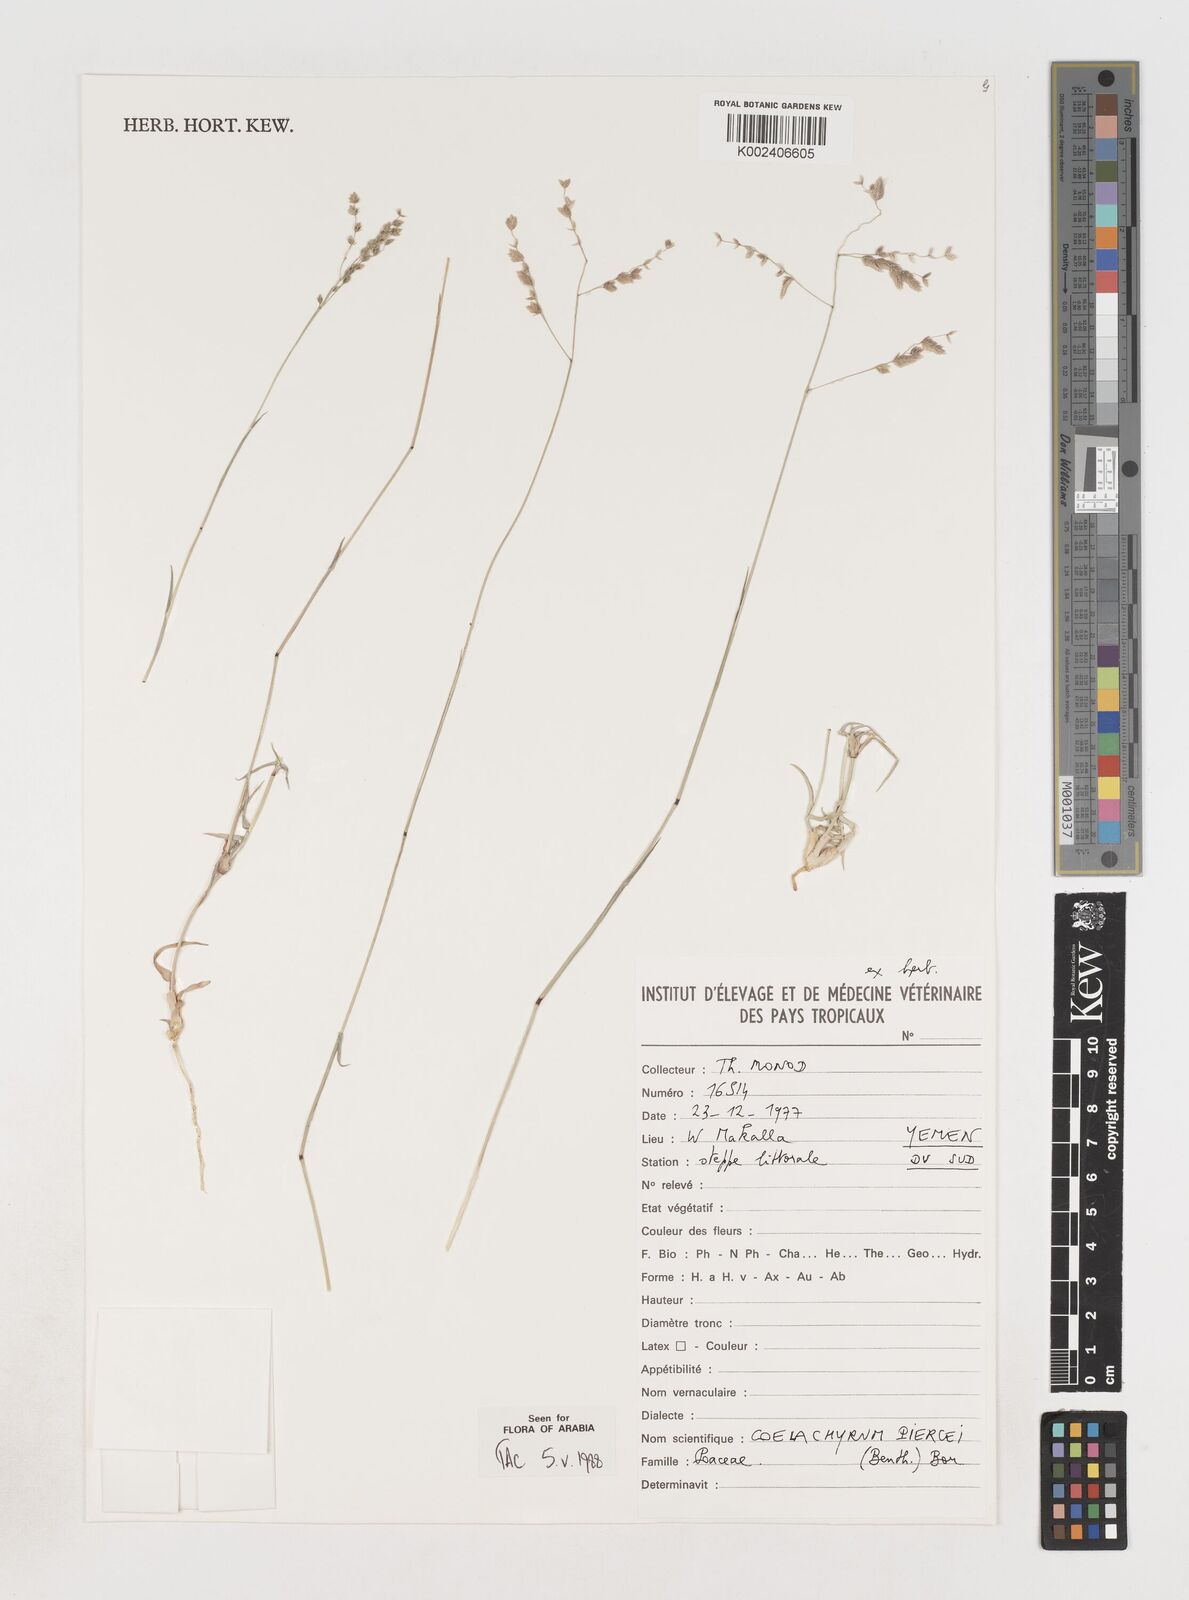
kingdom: Plantae
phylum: Tracheophyta
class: Liliopsida
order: Poales
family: Poaceae
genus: Coelachyrum
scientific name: Coelachyrum piercei
